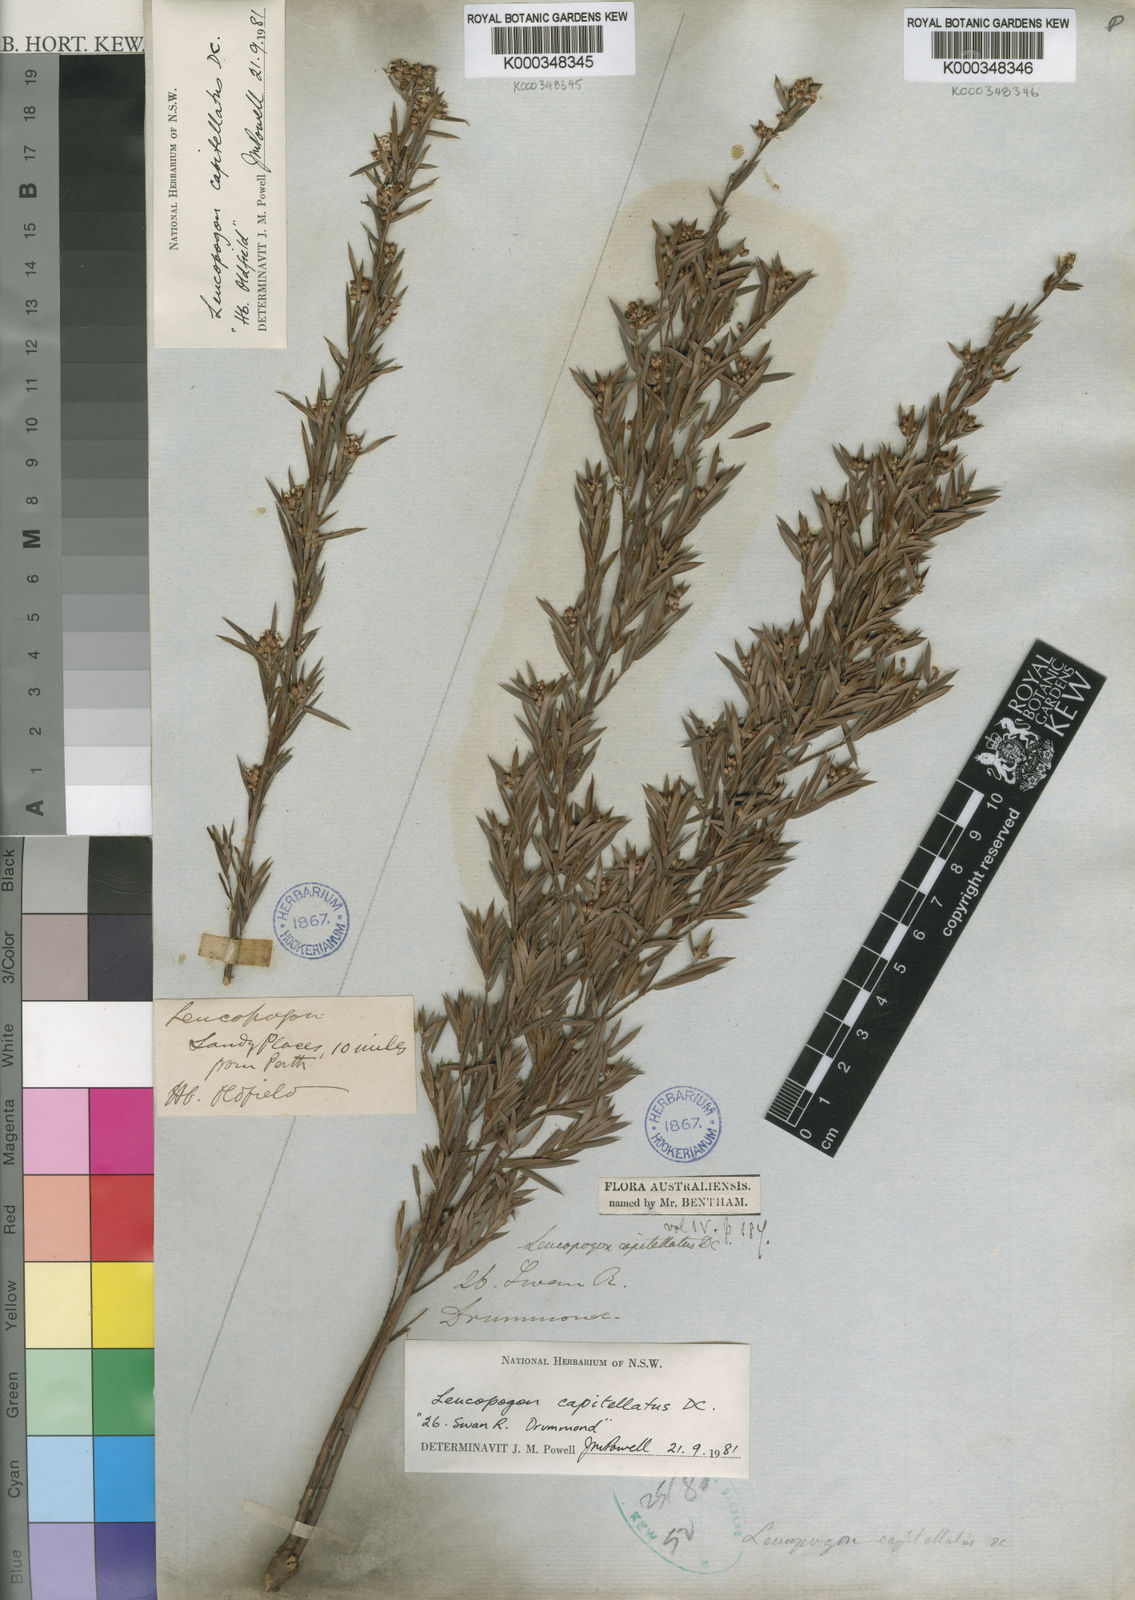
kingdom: Plantae
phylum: Tracheophyta
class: Magnoliopsida
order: Ericales
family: Ericaceae
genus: Leucopogon
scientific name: Leucopogon capitellatus
